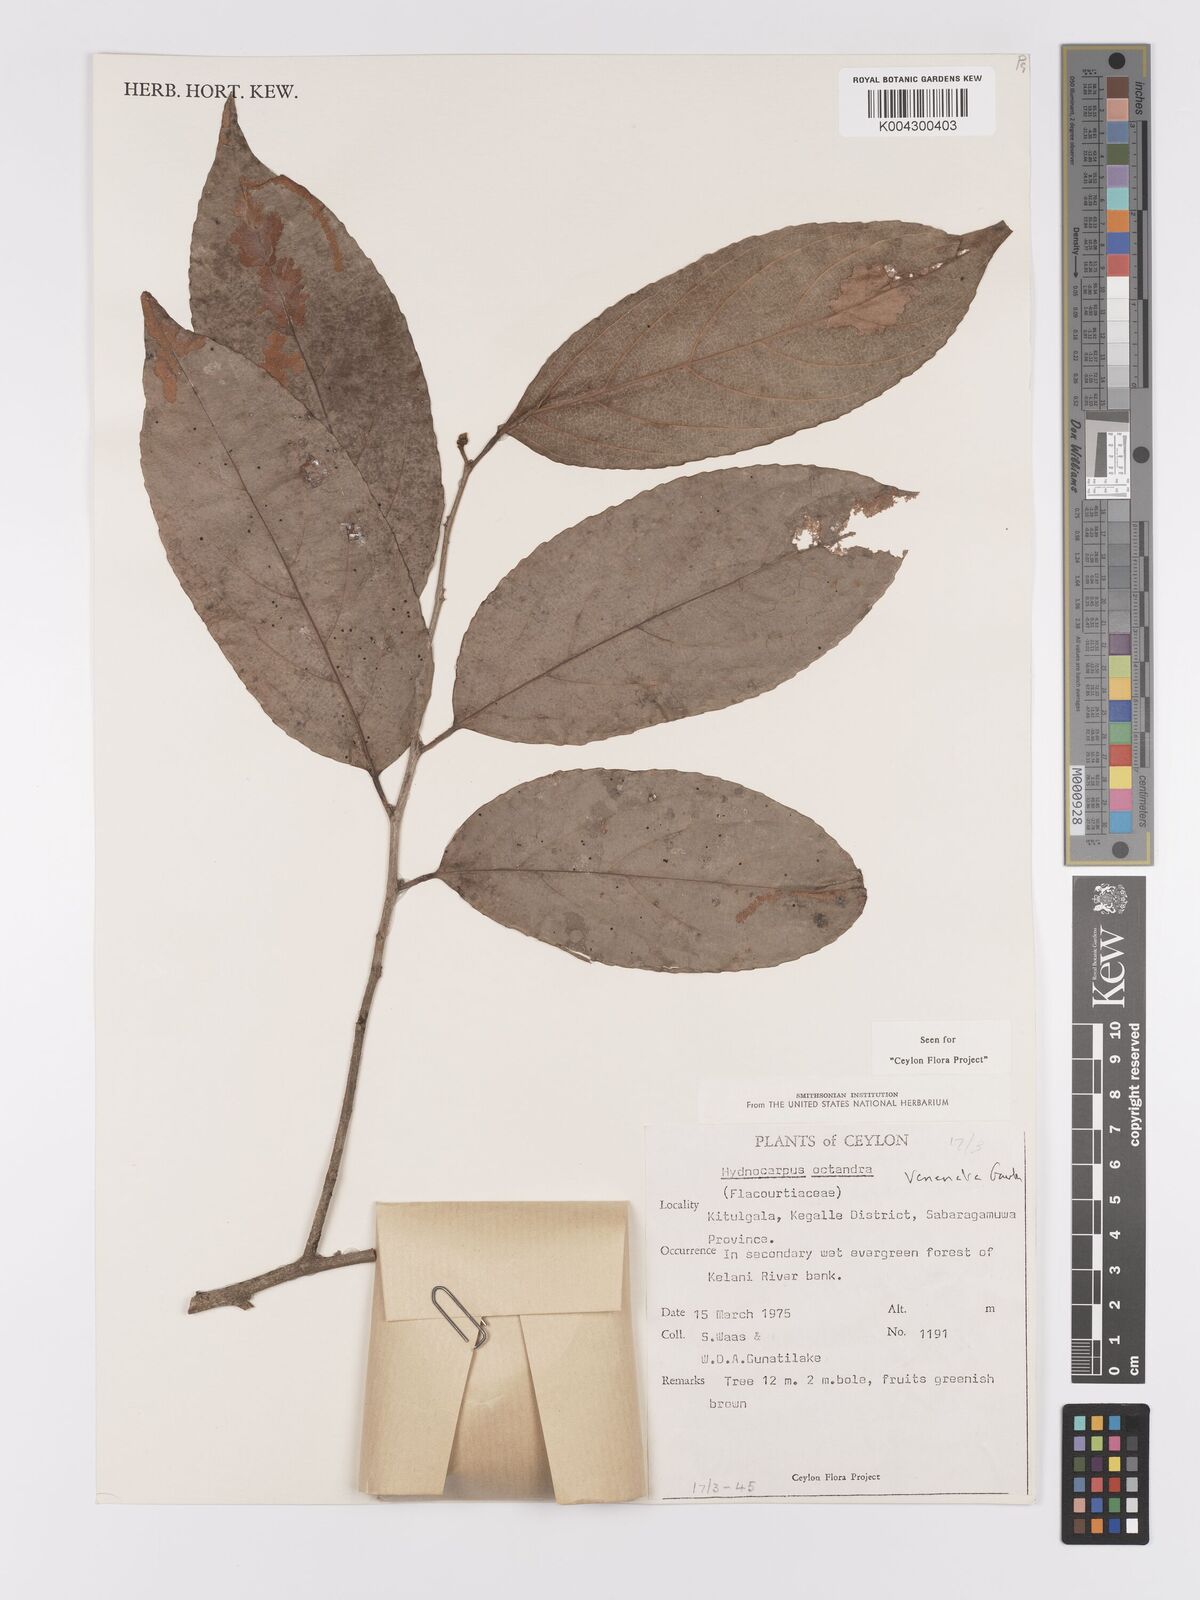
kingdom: Plantae
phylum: Tracheophyta
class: Magnoliopsida
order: Malpighiales
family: Achariaceae
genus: Hydnocarpus
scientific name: Hydnocarpus venenatus
